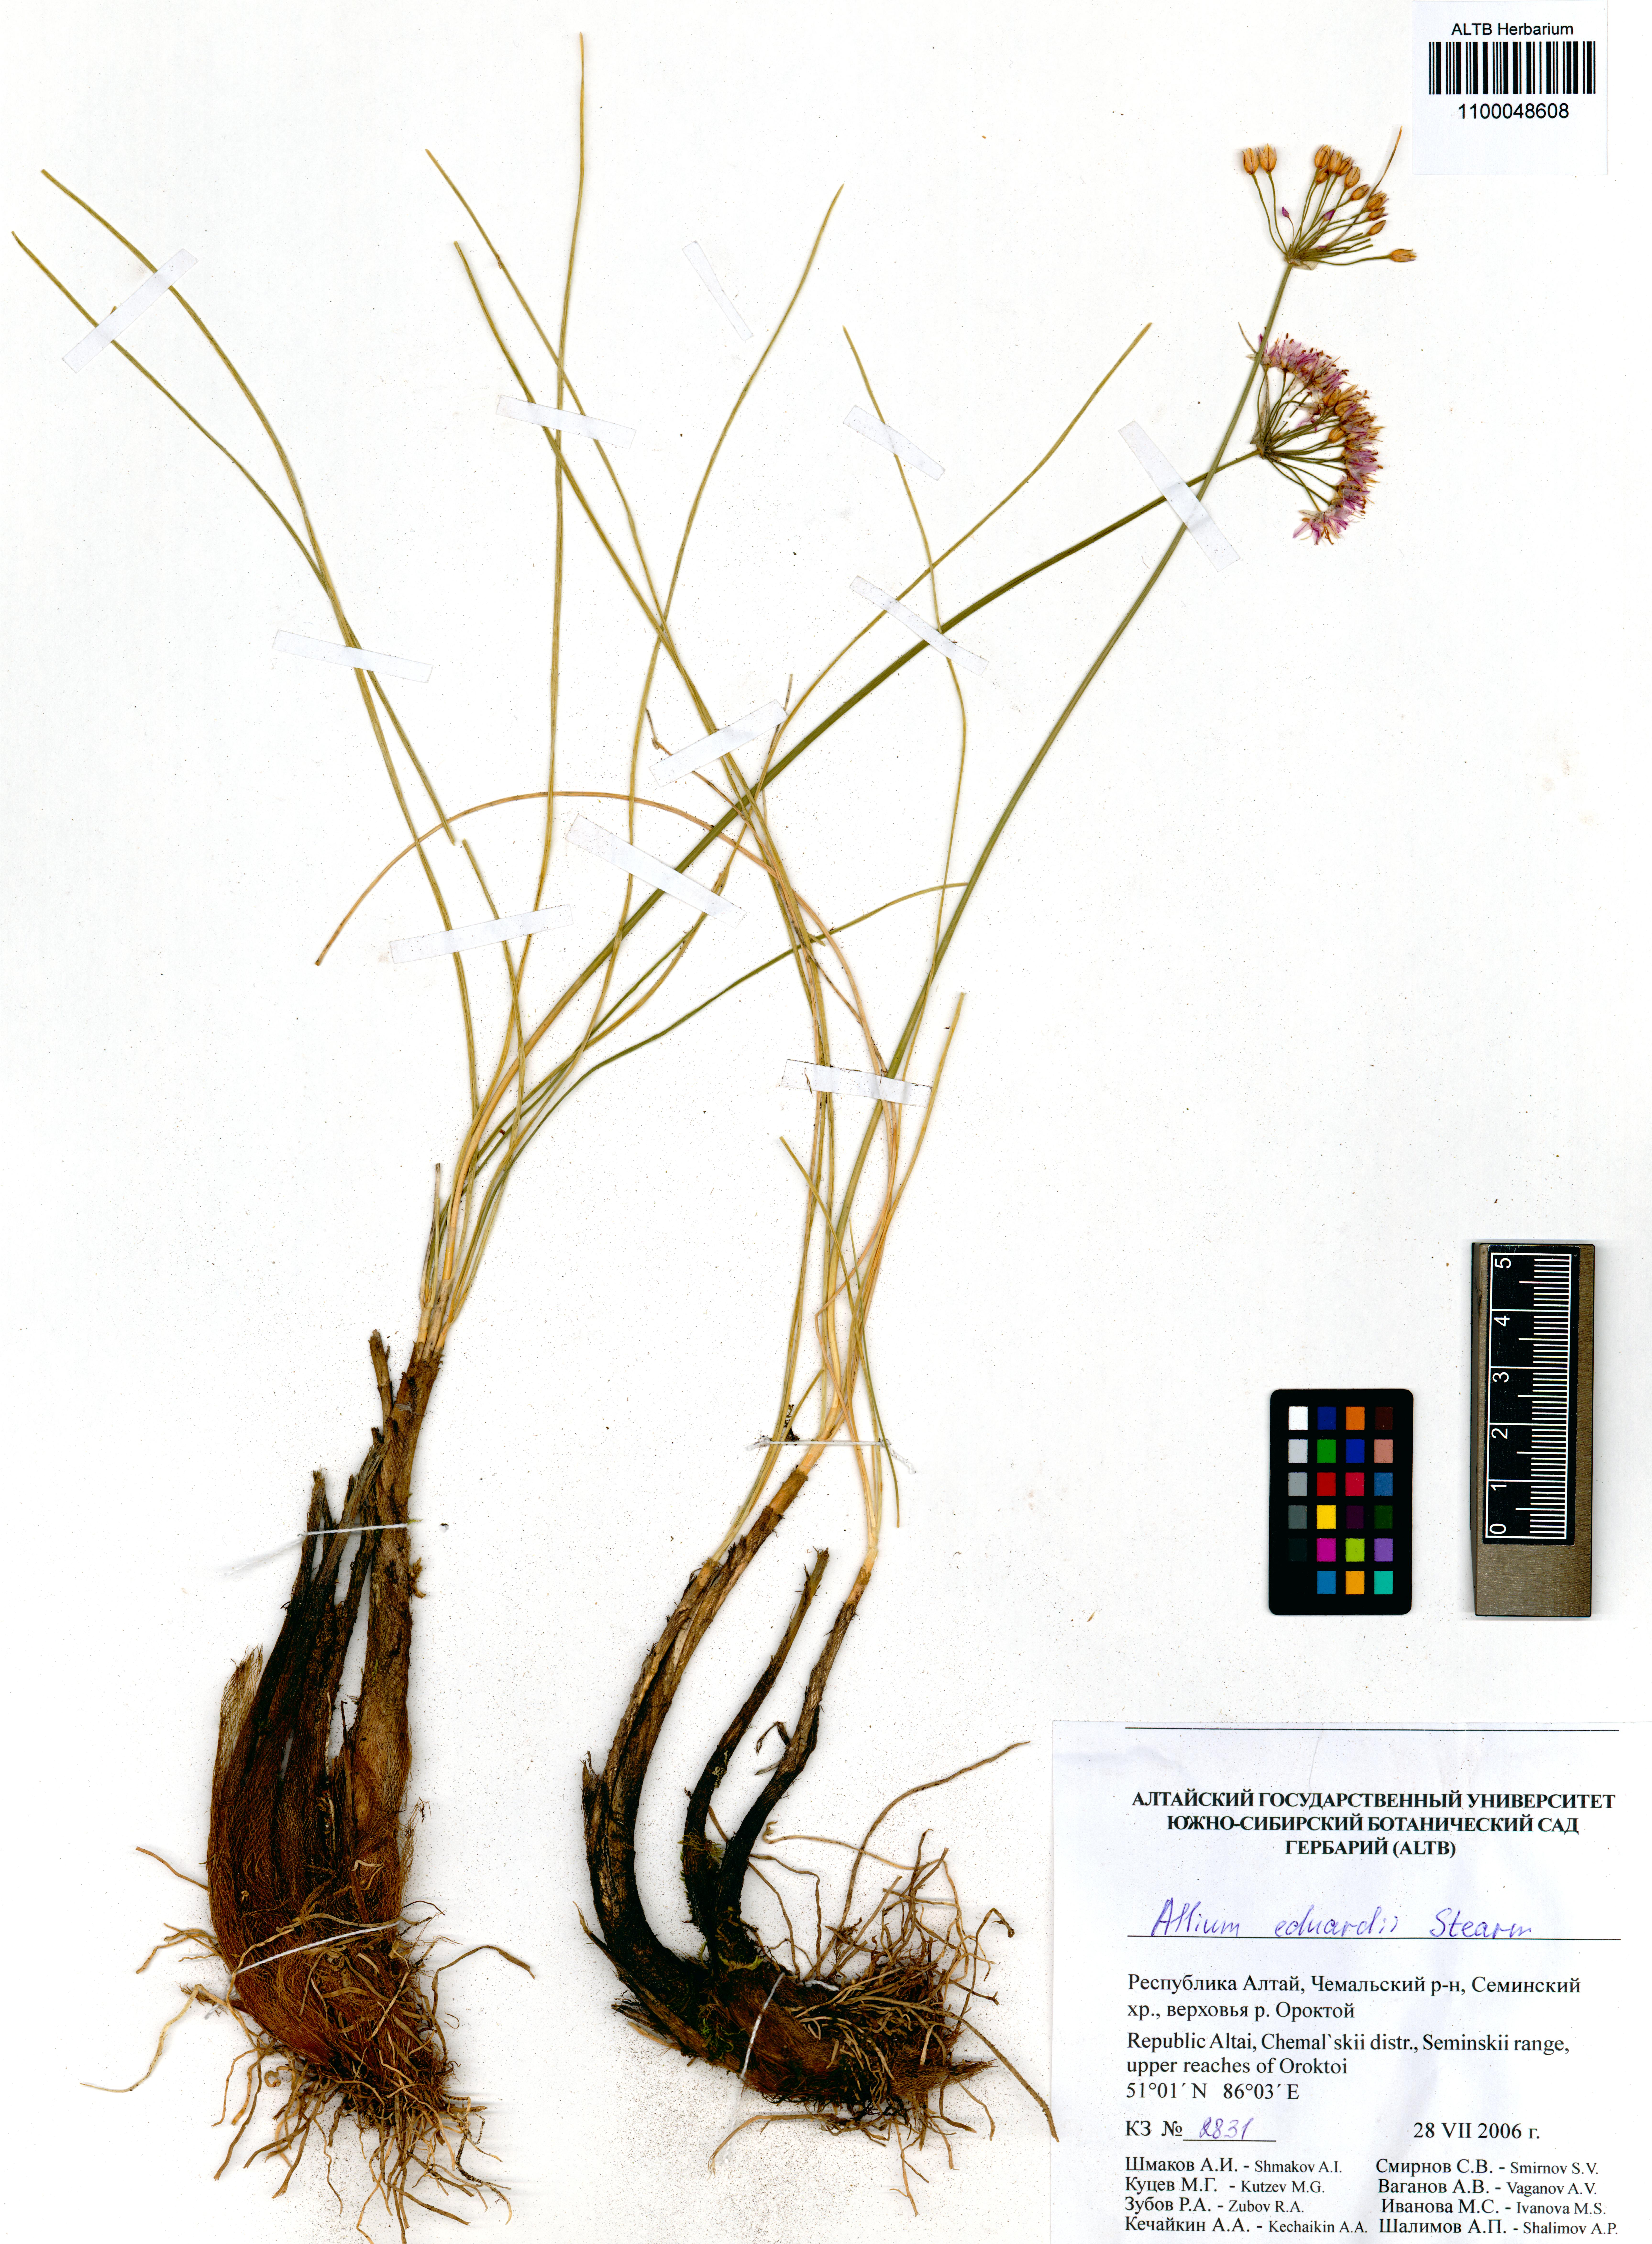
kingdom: Plantae
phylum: Tracheophyta
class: Liliopsida
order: Asparagales
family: Amaryllidaceae
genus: Allium
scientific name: Allium eduardi
